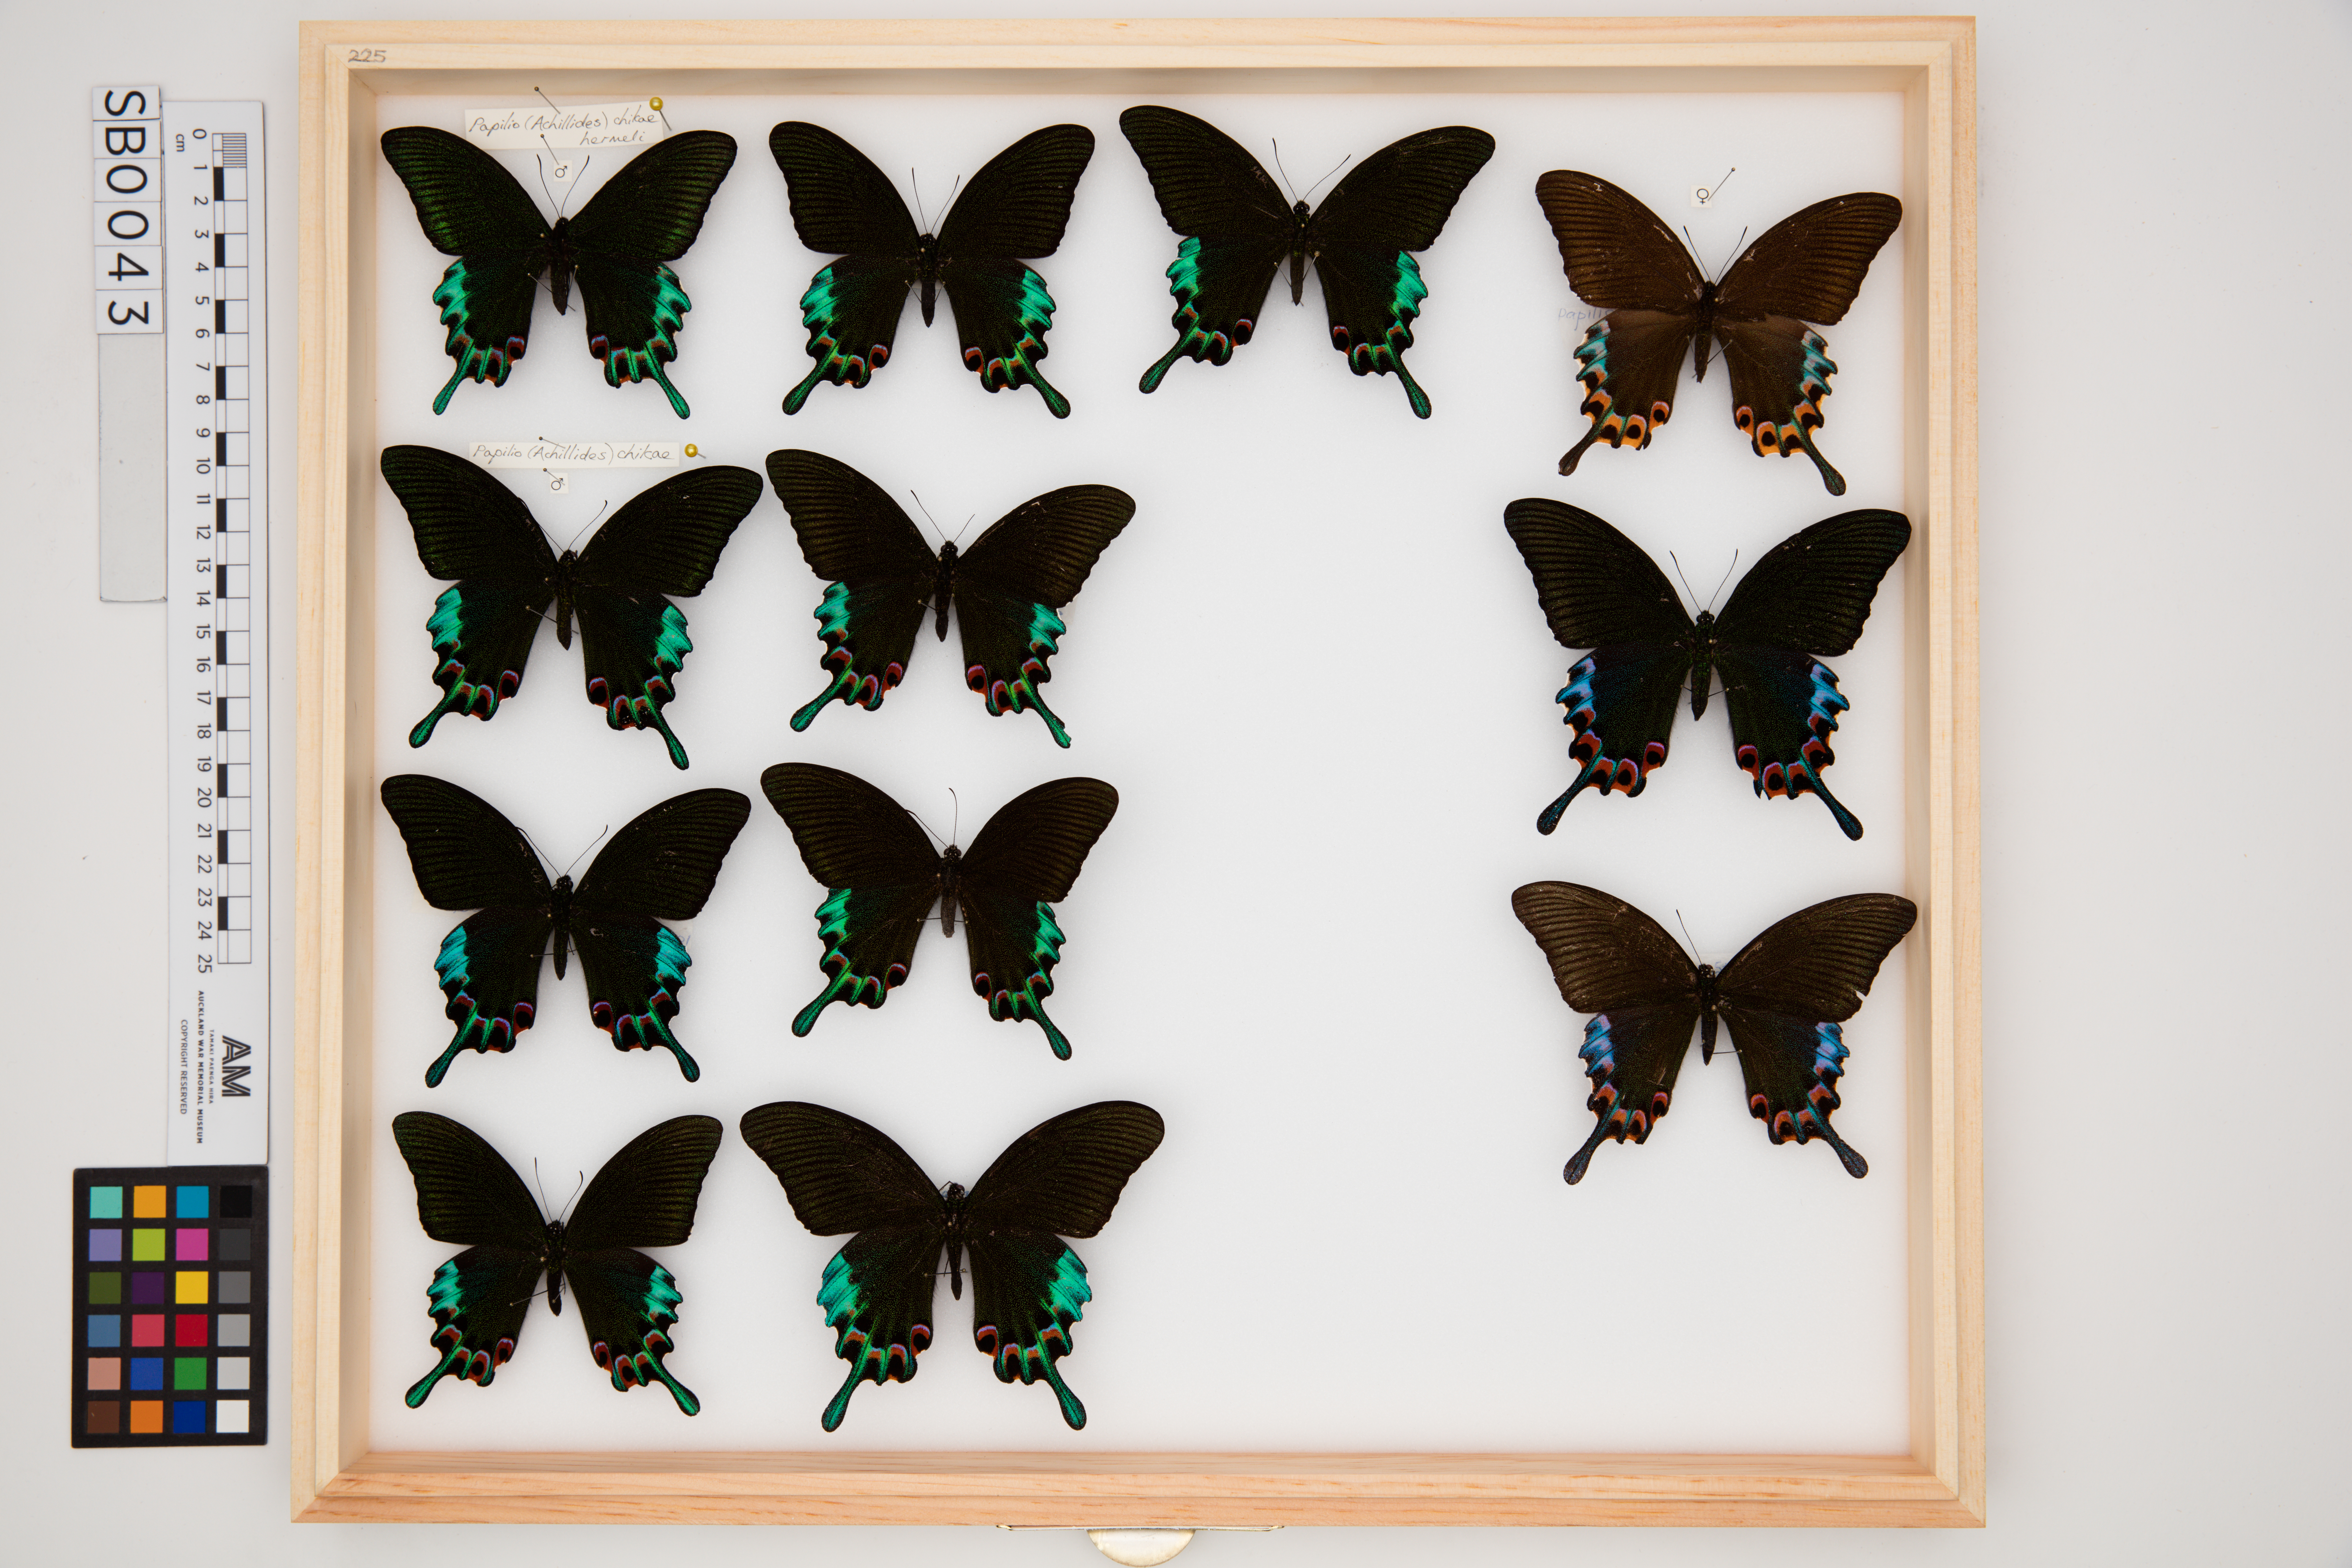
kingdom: Animalia
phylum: Arthropoda
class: Insecta
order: Lepidoptera
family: Papilionidae
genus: Papilio
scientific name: Papilio chikae
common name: Luzon peacock swallowtail
